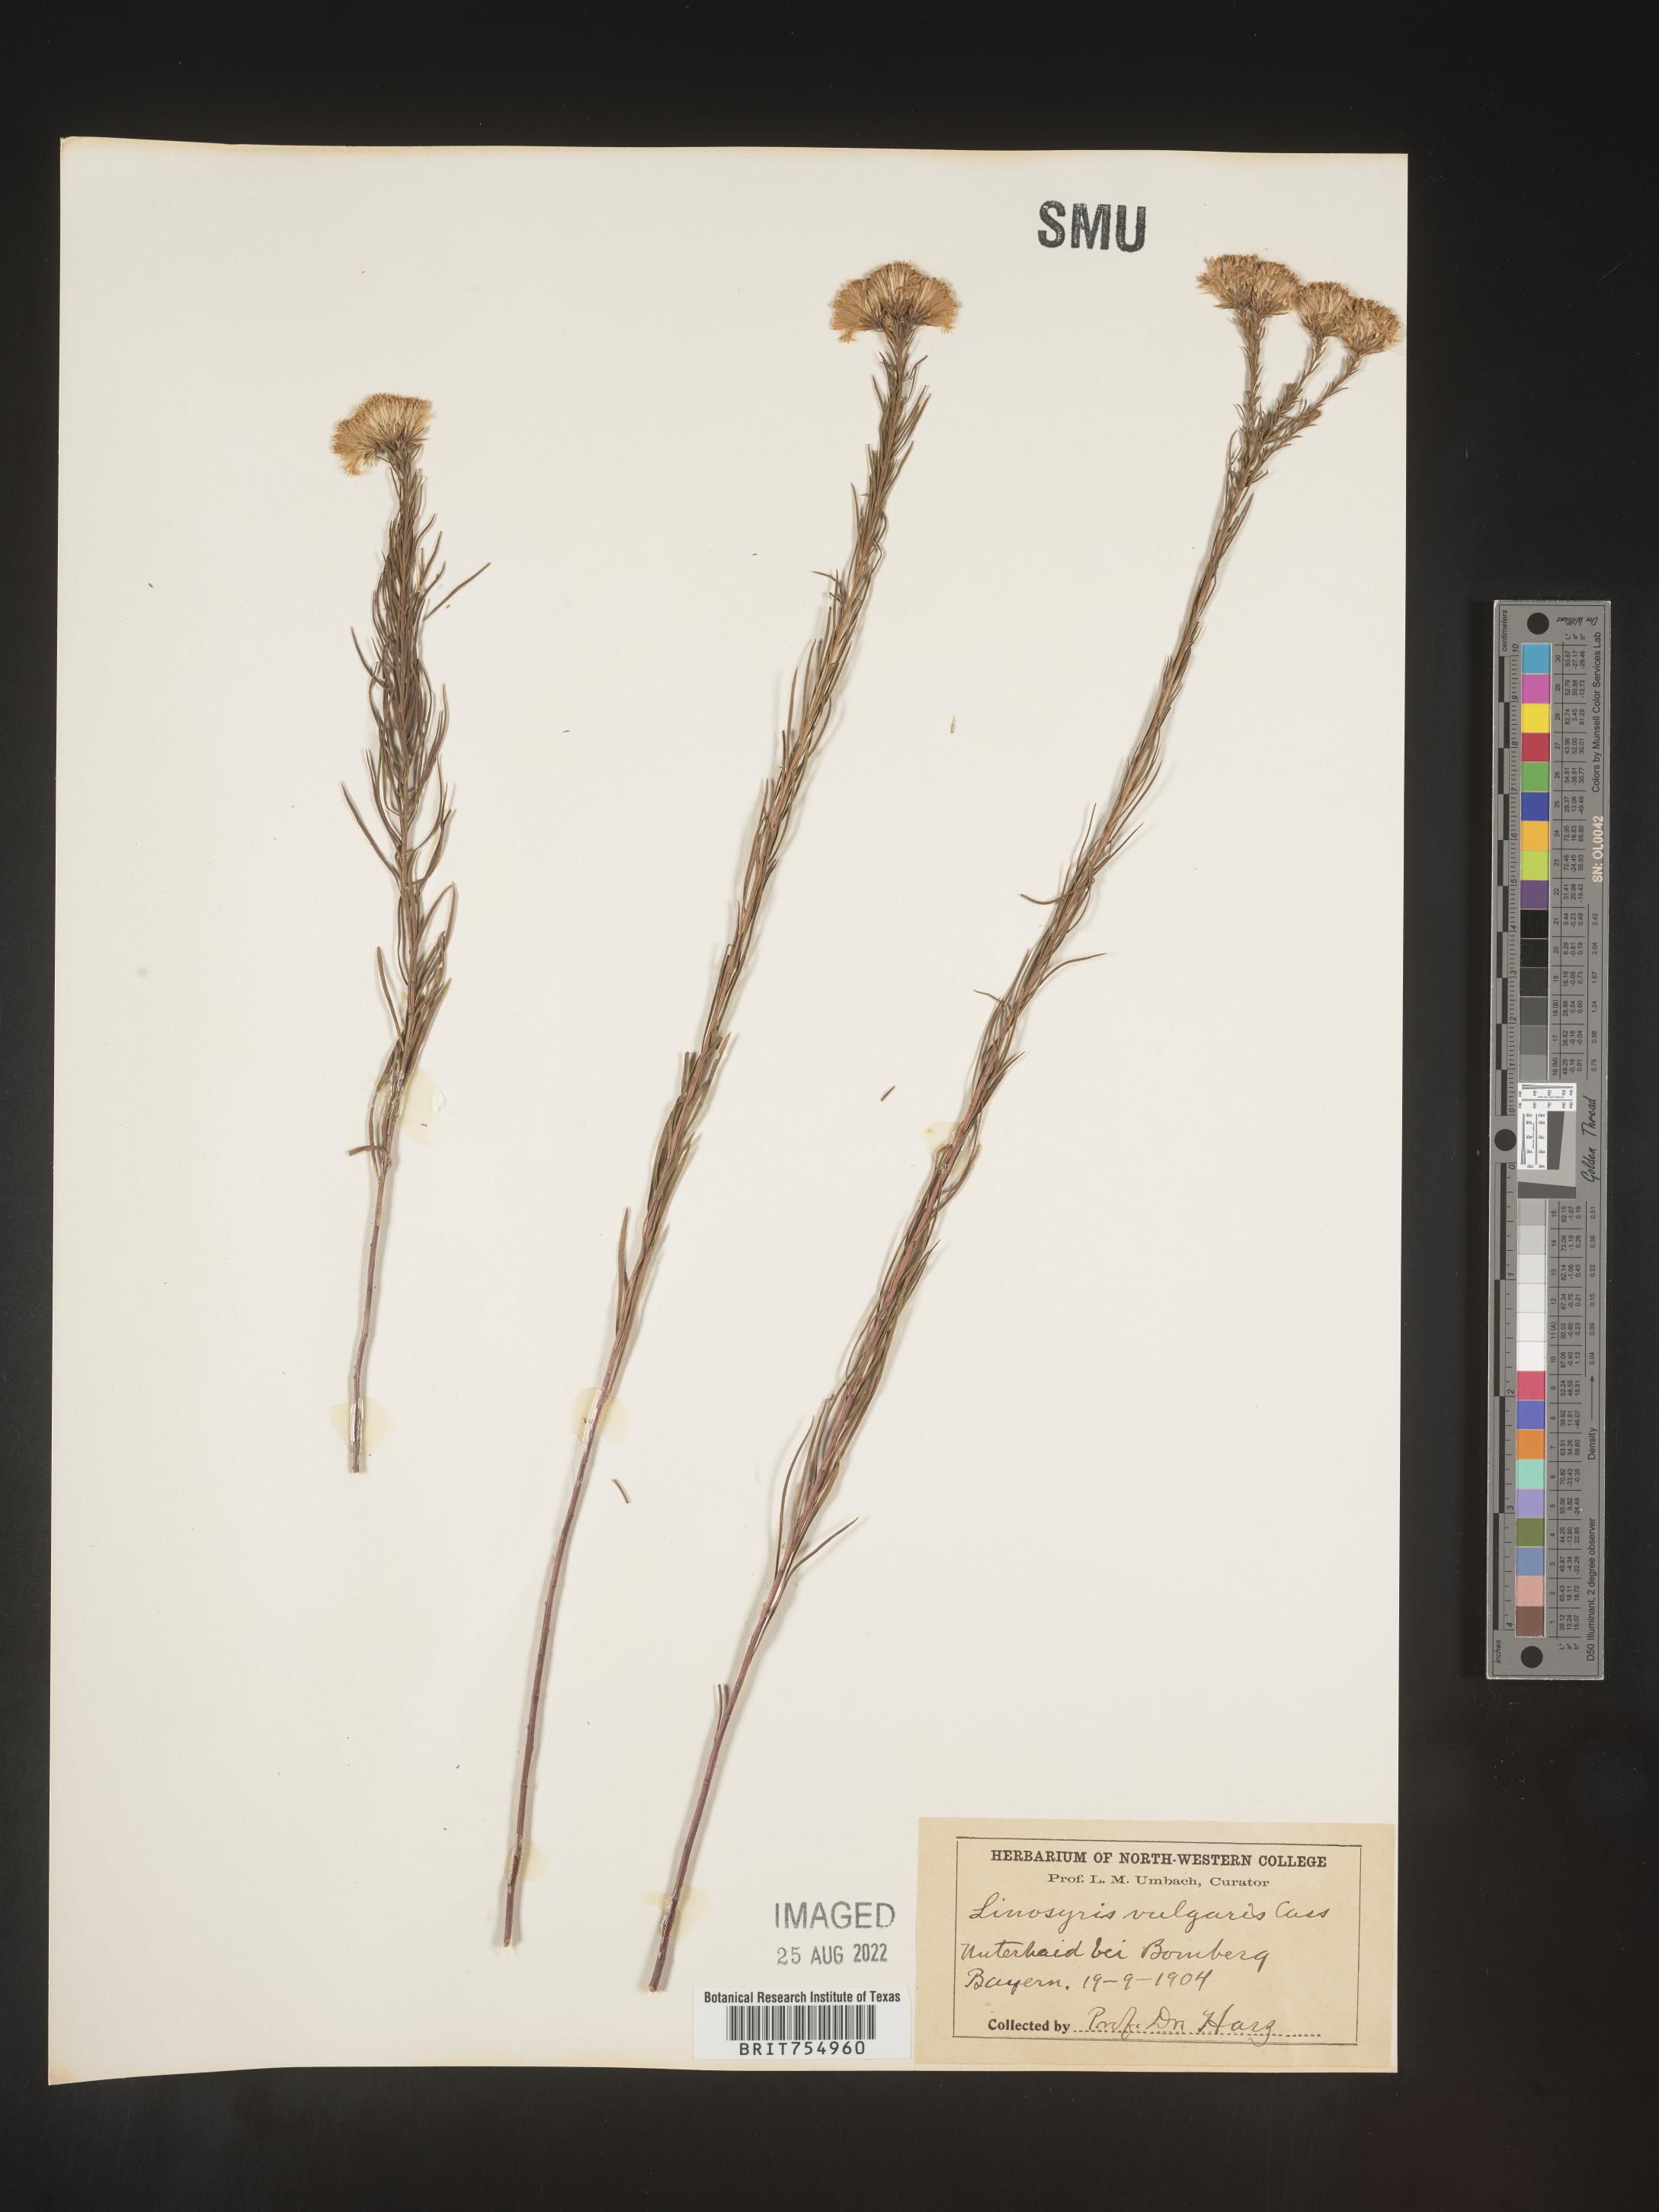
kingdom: Plantae
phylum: Tracheophyta
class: Magnoliopsida
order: Asterales
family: Asteraceae
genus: Symphyotrichum
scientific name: Symphyotrichum
